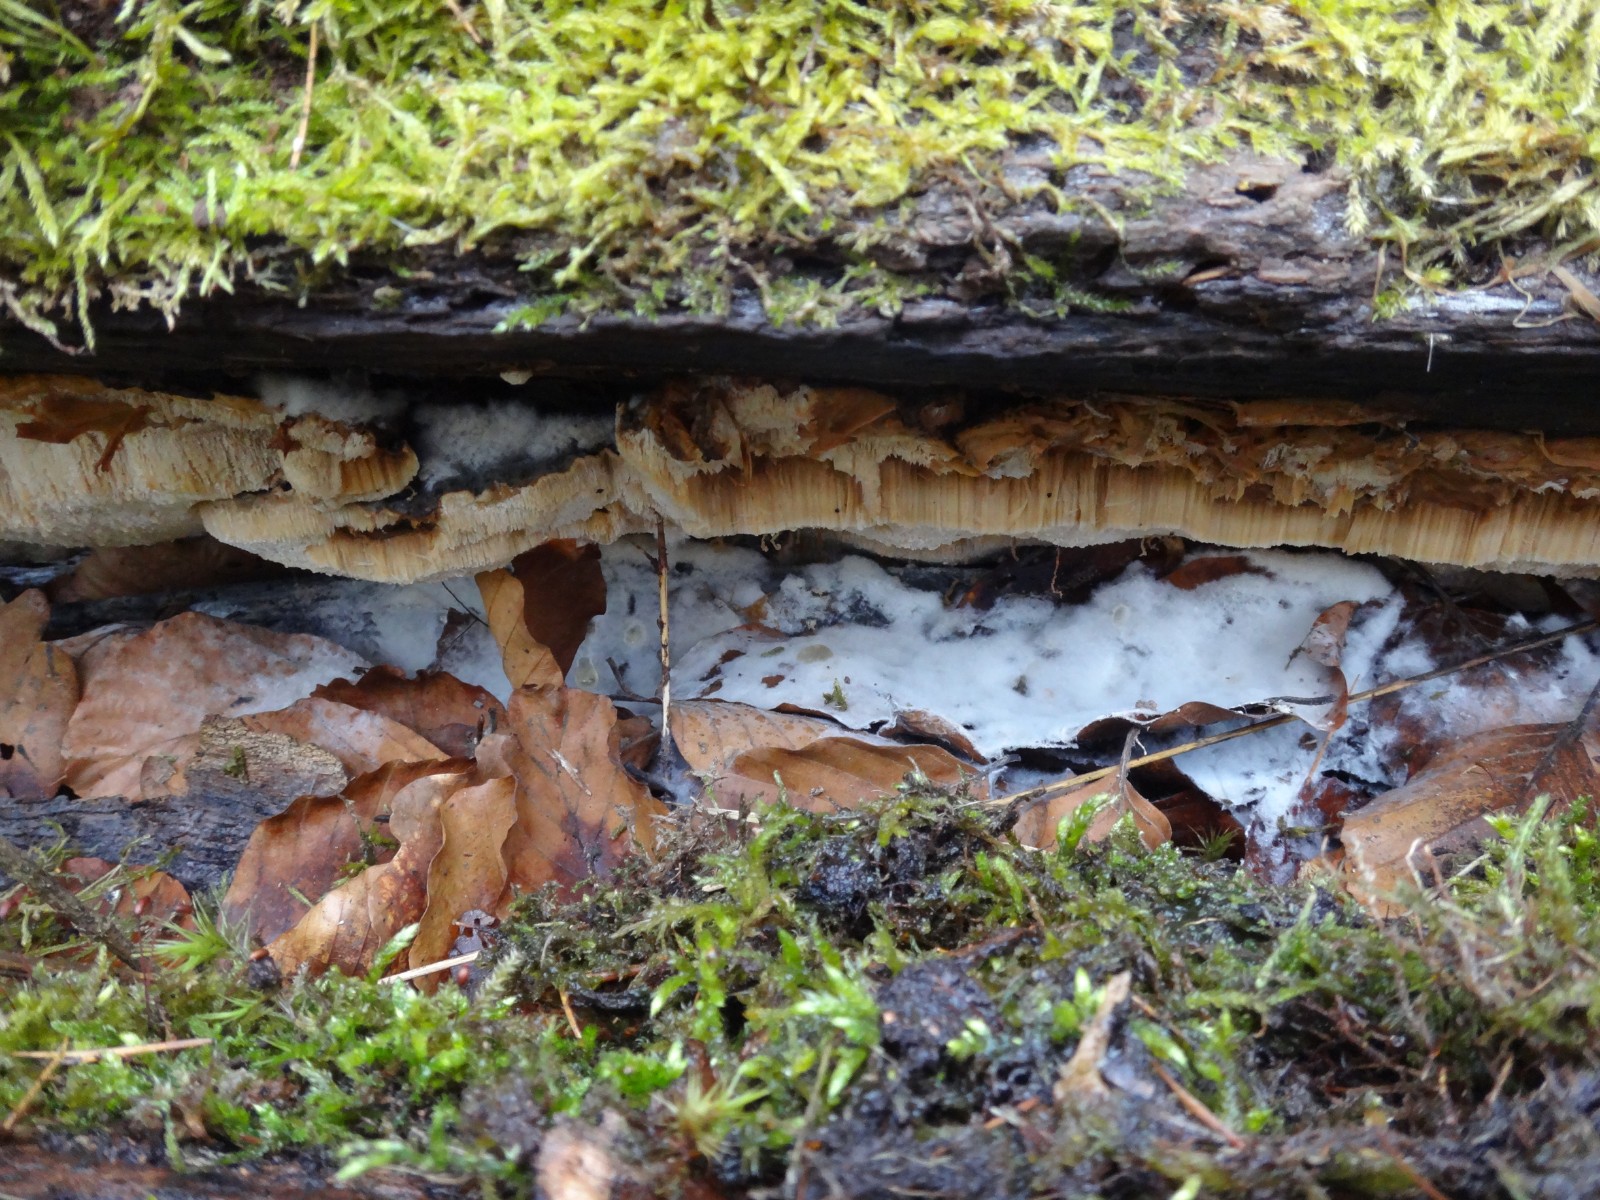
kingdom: Fungi
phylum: Basidiomycota
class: Agaricomycetes
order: Polyporales
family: Ischnodermataceae
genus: Ischnoderma
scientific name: Ischnoderma resinosum
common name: løv-tjæreporesvamp
